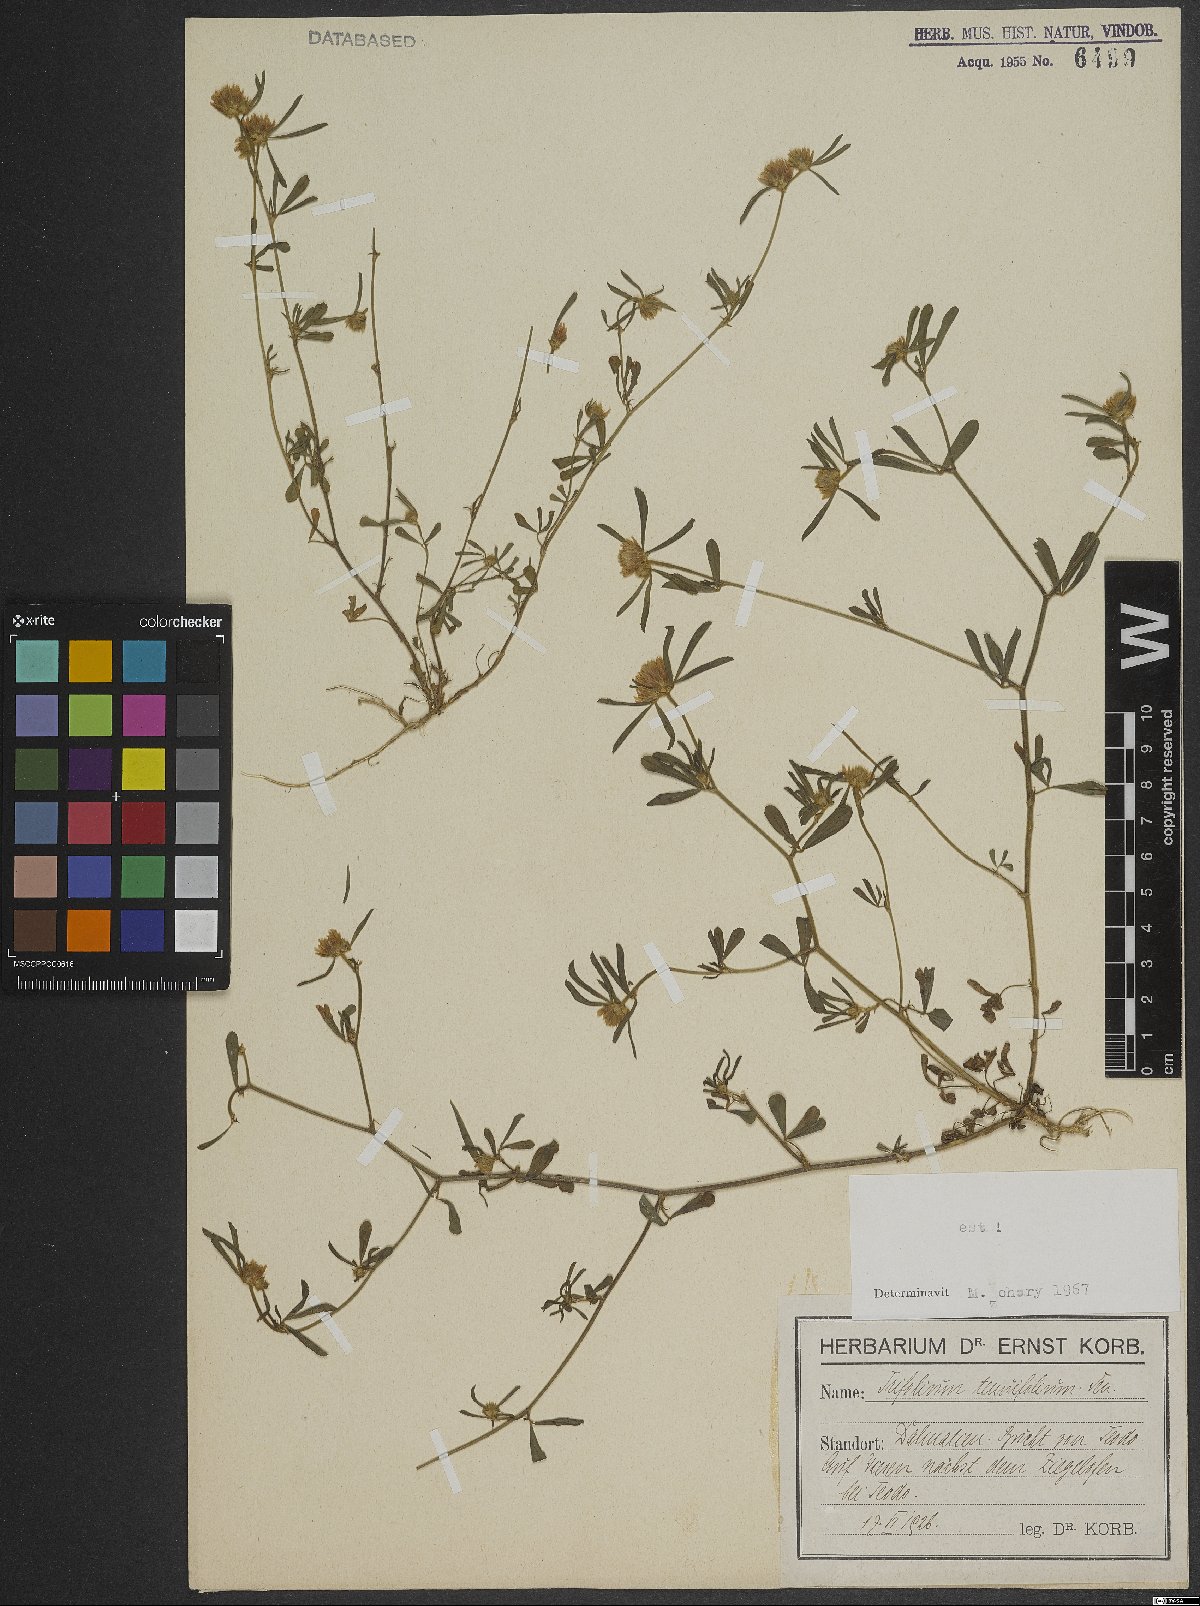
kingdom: Plantae
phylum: Tracheophyta
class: Magnoliopsida
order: Fabales
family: Fabaceae
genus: Trifolium
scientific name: Trifolium tenuifolium
